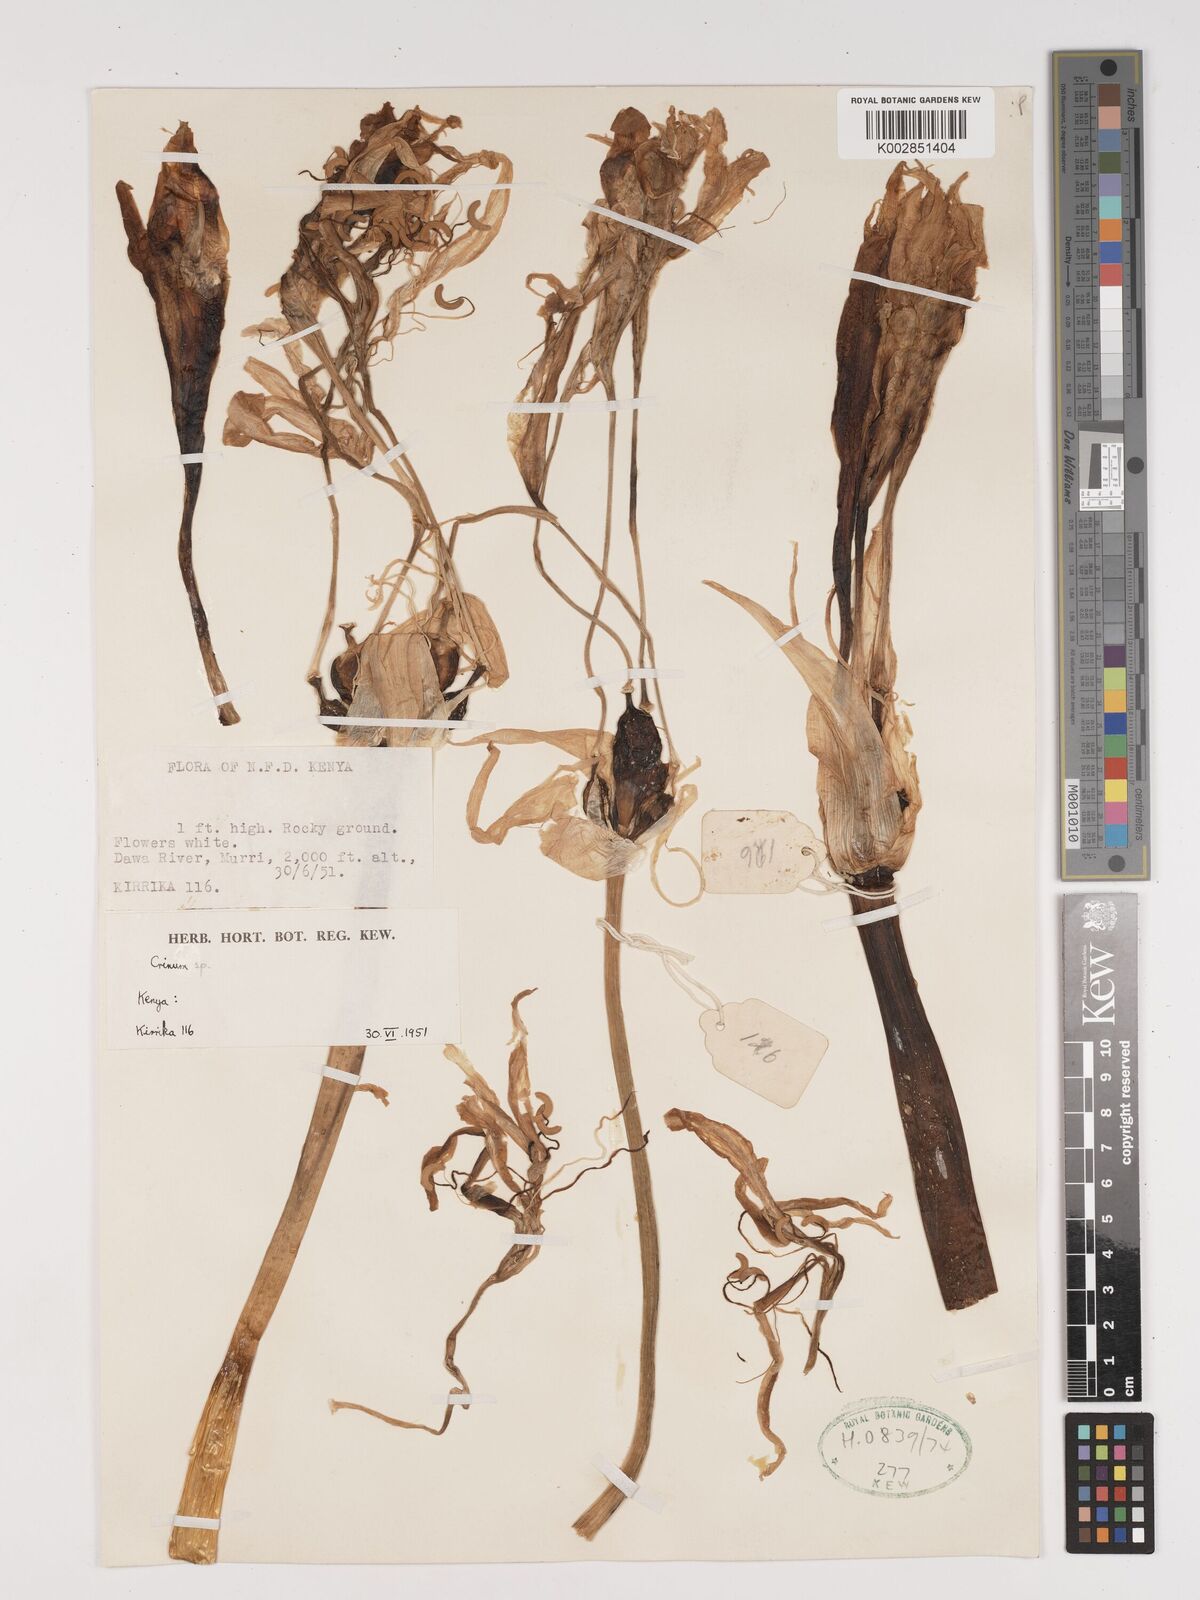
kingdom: Plantae
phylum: Tracheophyta
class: Liliopsida
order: Asparagales
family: Amaryllidaceae
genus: Crinum
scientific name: Crinum
